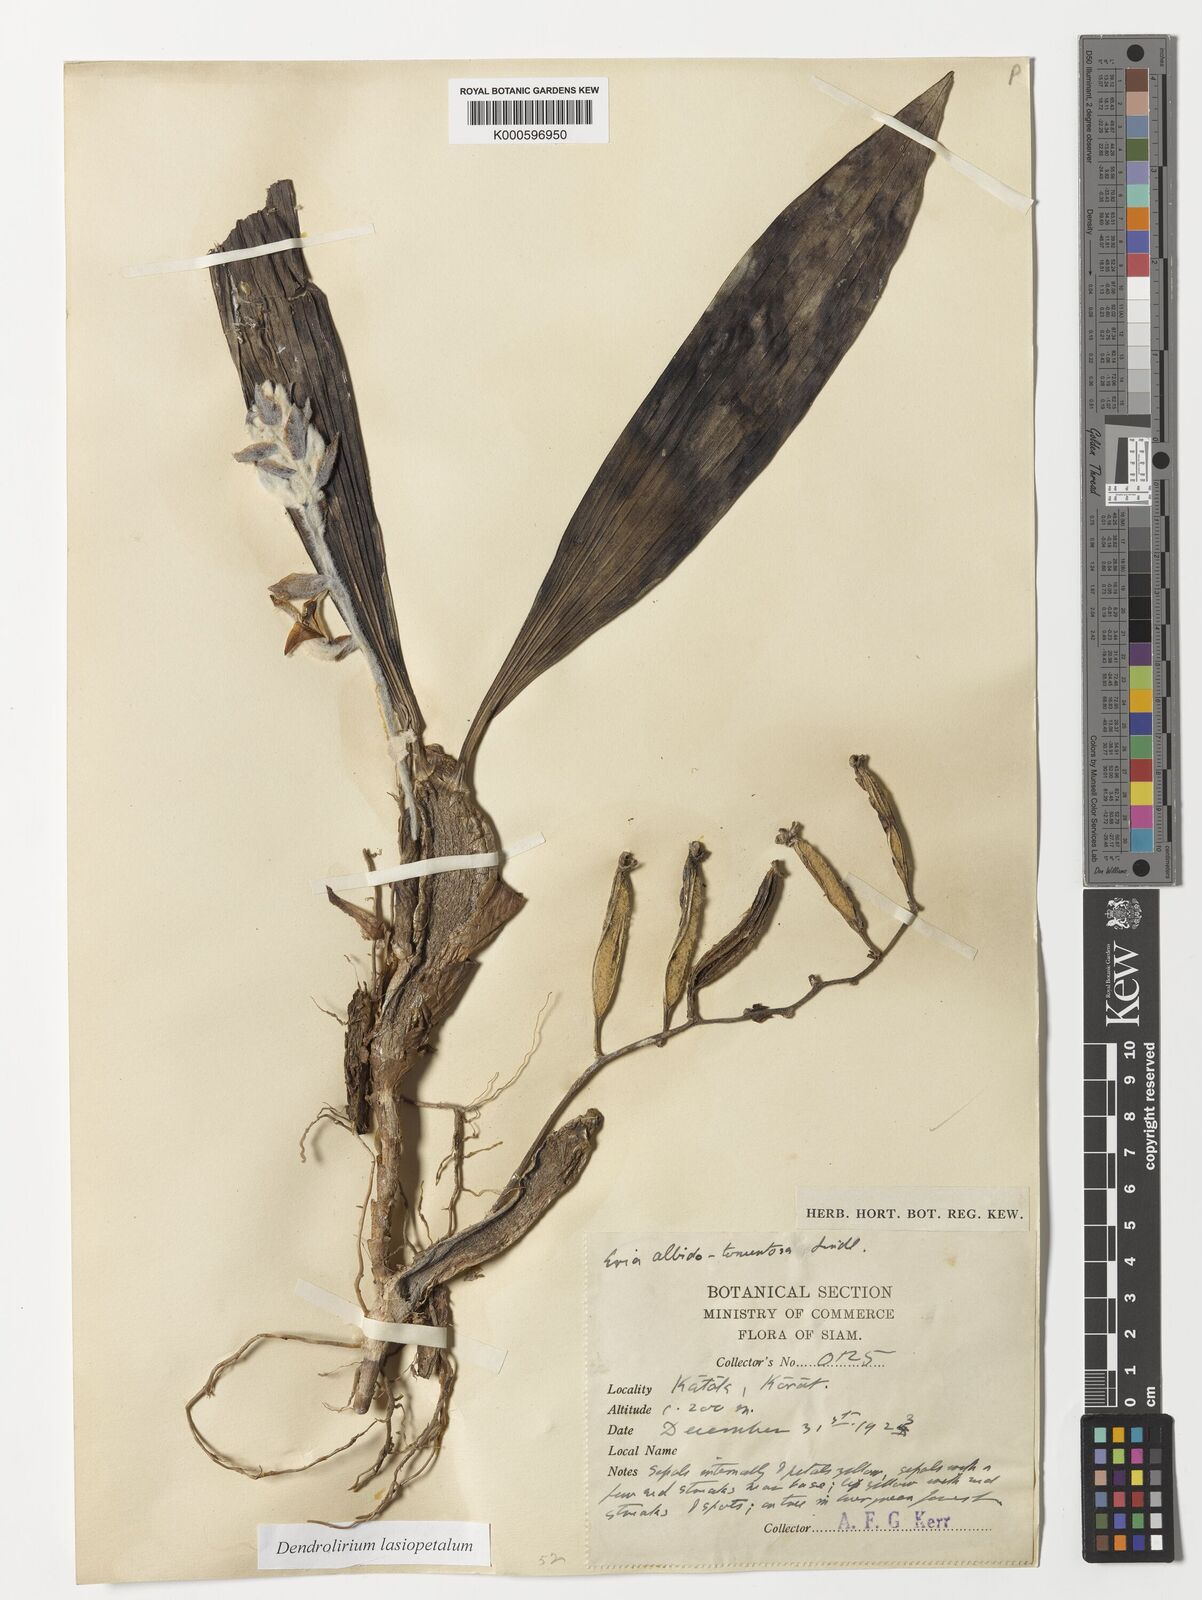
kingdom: Plantae
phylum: Tracheophyta
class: Liliopsida
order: Asparagales
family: Orchidaceae
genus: Dendrolirium
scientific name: Dendrolirium lasiopetalum
